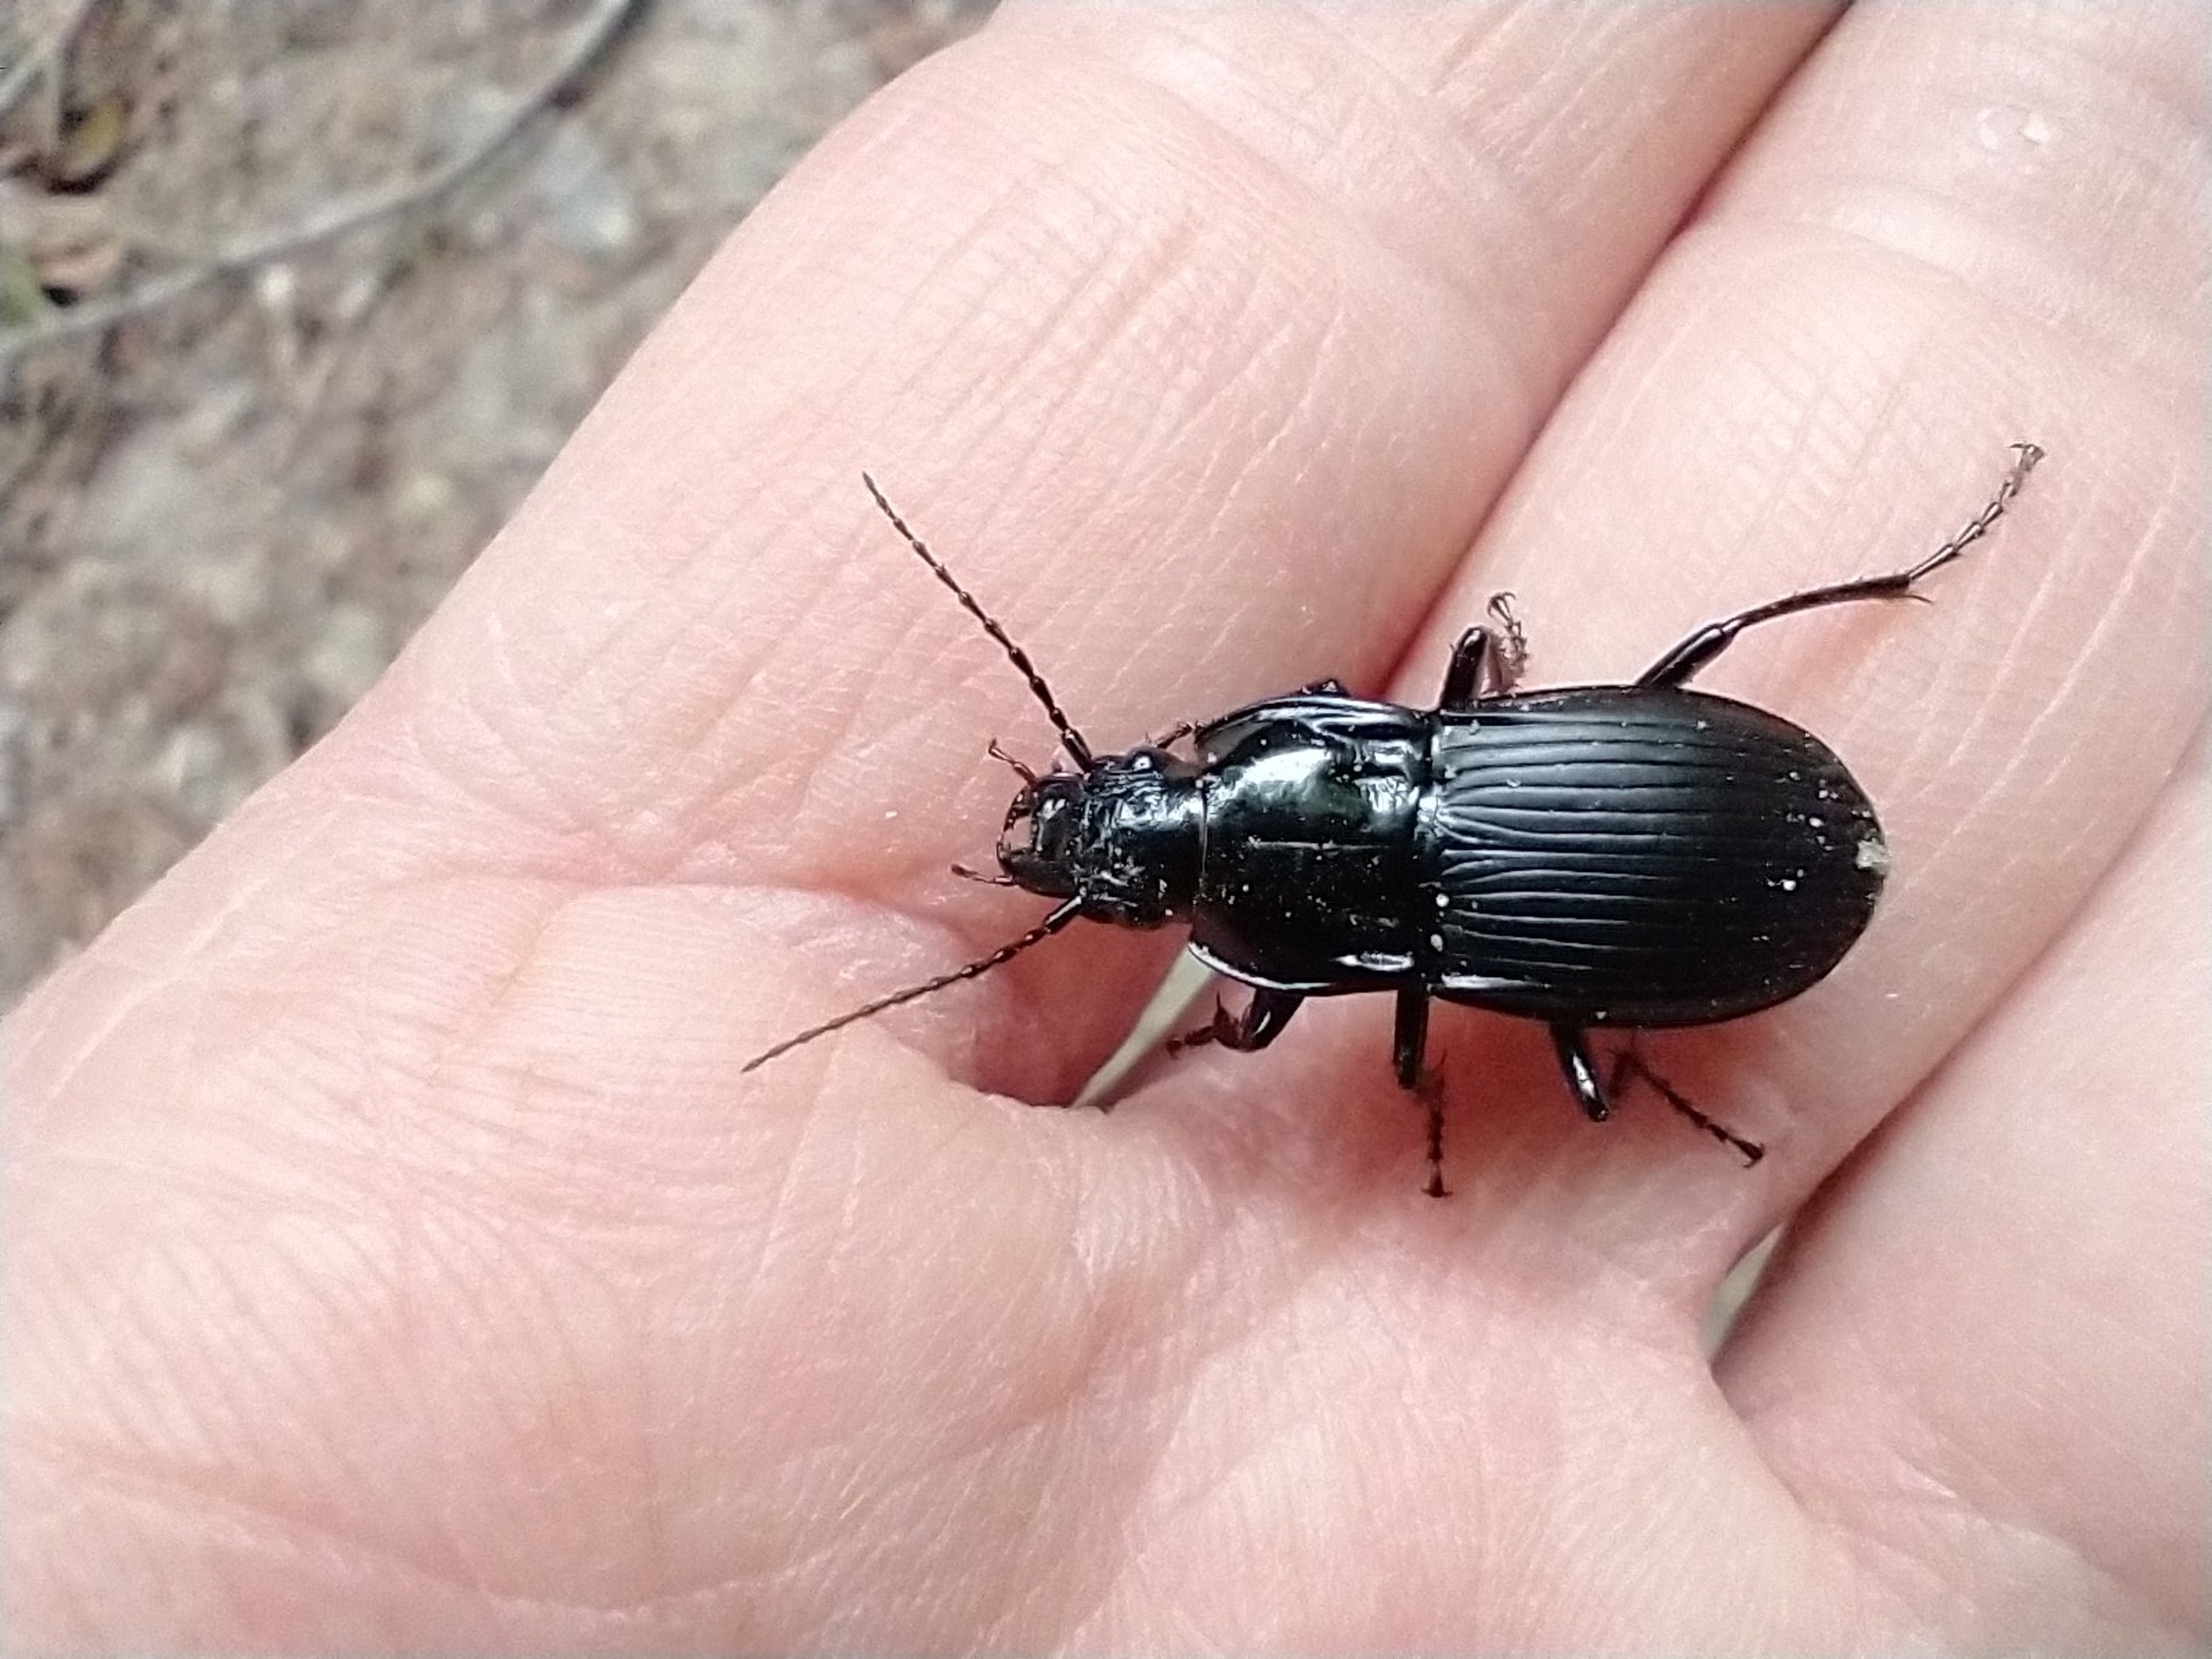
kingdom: Animalia
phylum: Arthropoda
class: Insecta
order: Coleoptera
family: Carabidae
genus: Abax
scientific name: Abax parallelepipedus
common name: Bred muldløber
